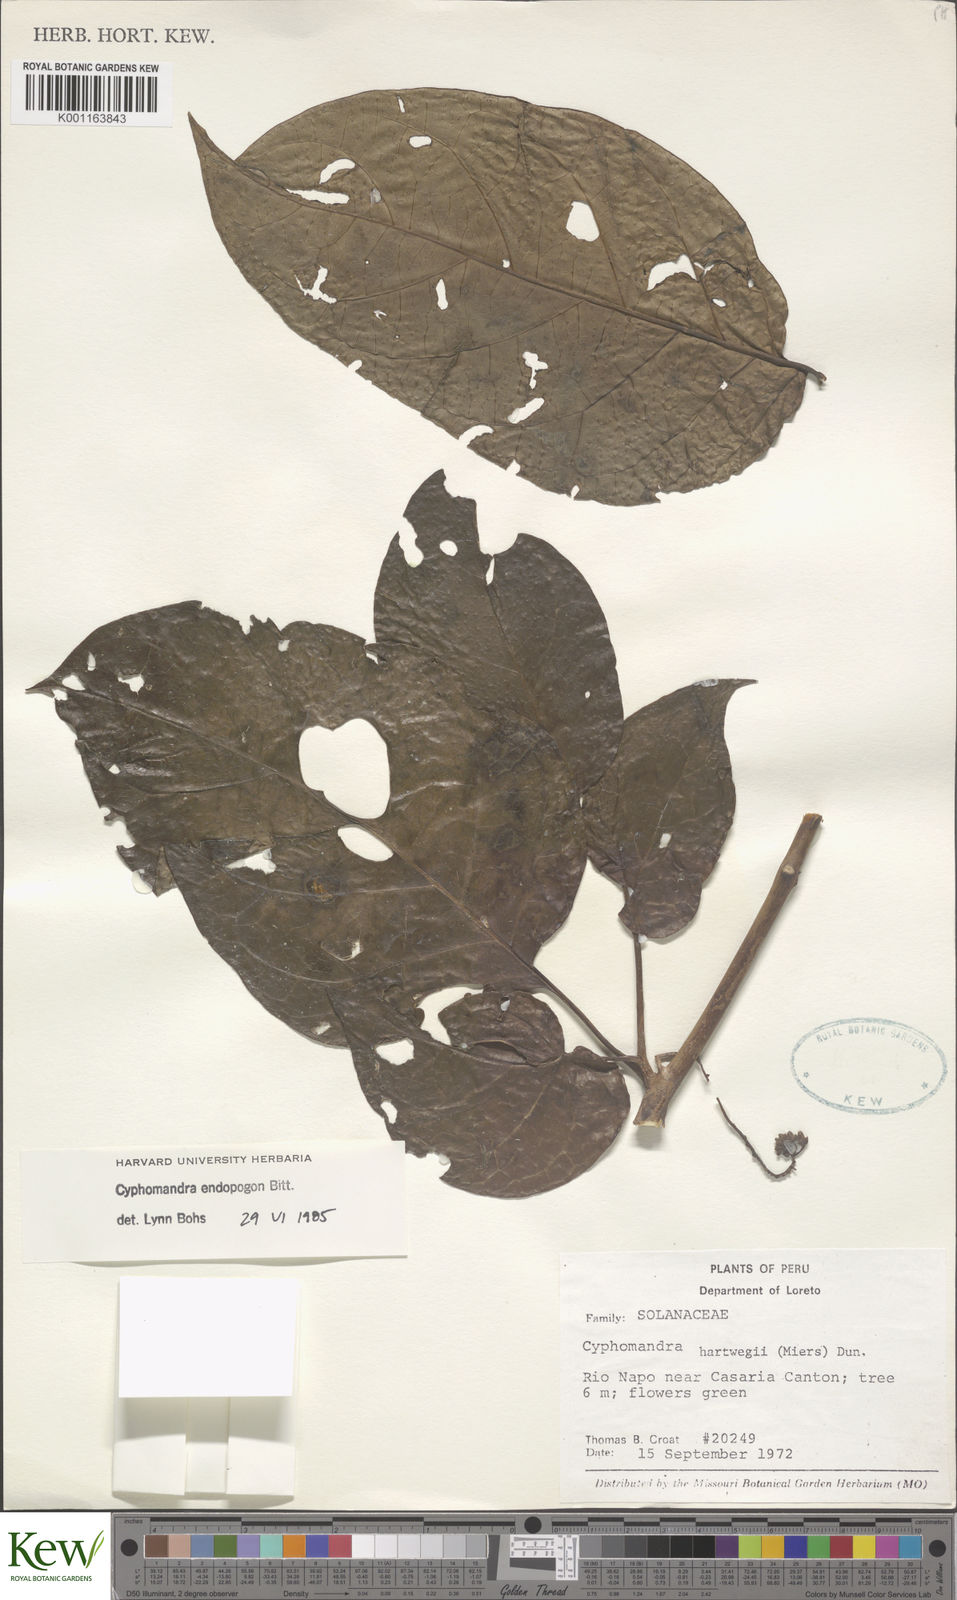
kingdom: Plantae
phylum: Tracheophyta
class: Magnoliopsida
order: Solanales
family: Solanaceae
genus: Solanum
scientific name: Solanum endopogon
